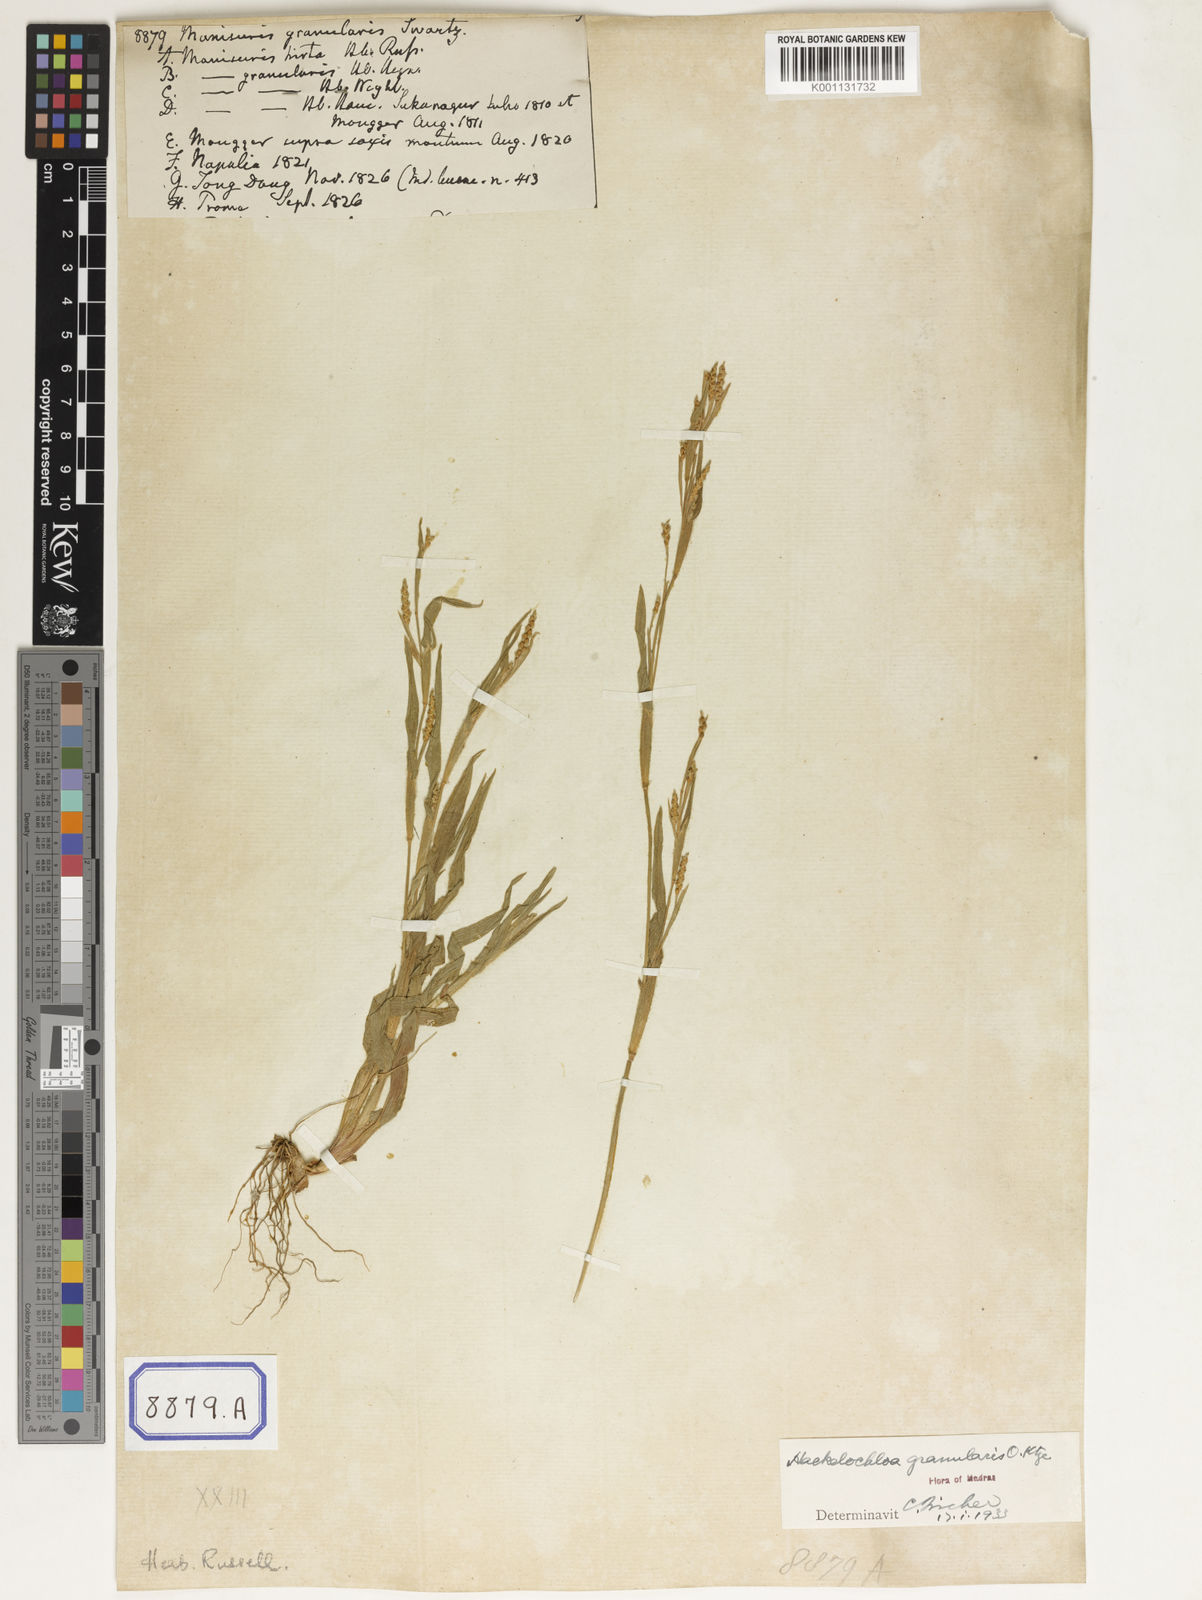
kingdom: Plantae
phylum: Tracheophyta
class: Liliopsida
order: Poales
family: Poaceae
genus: Manisuris
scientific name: Manisuris
